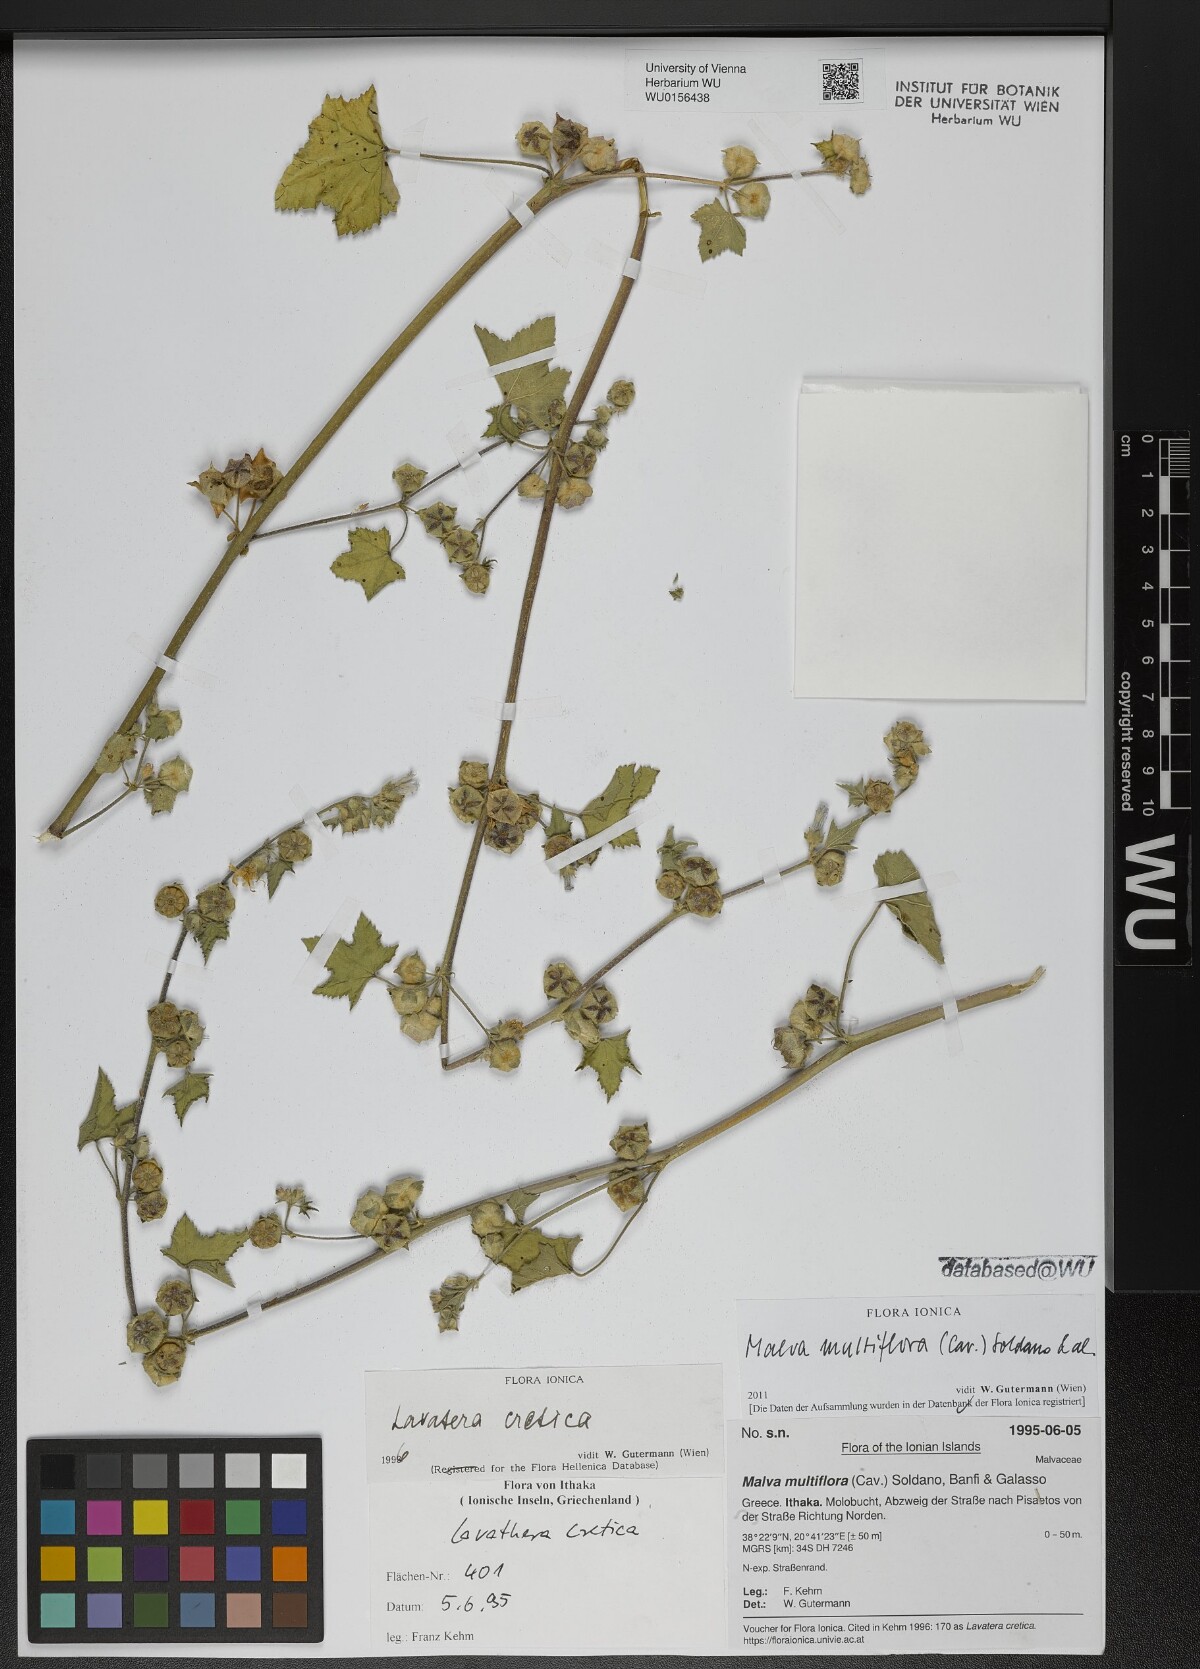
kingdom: Plantae
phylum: Tracheophyta
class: Magnoliopsida
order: Malvales
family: Malvaceae
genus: Malva
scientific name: Malva multiflora
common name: Cheeseweed
